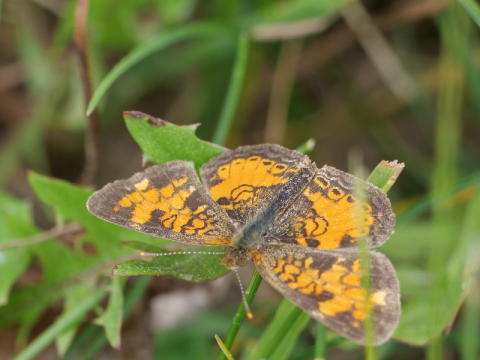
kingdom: Animalia
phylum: Arthropoda
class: Insecta
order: Lepidoptera
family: Nymphalidae
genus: Phyciodes
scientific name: Phyciodes tharos
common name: Northern Crescent
